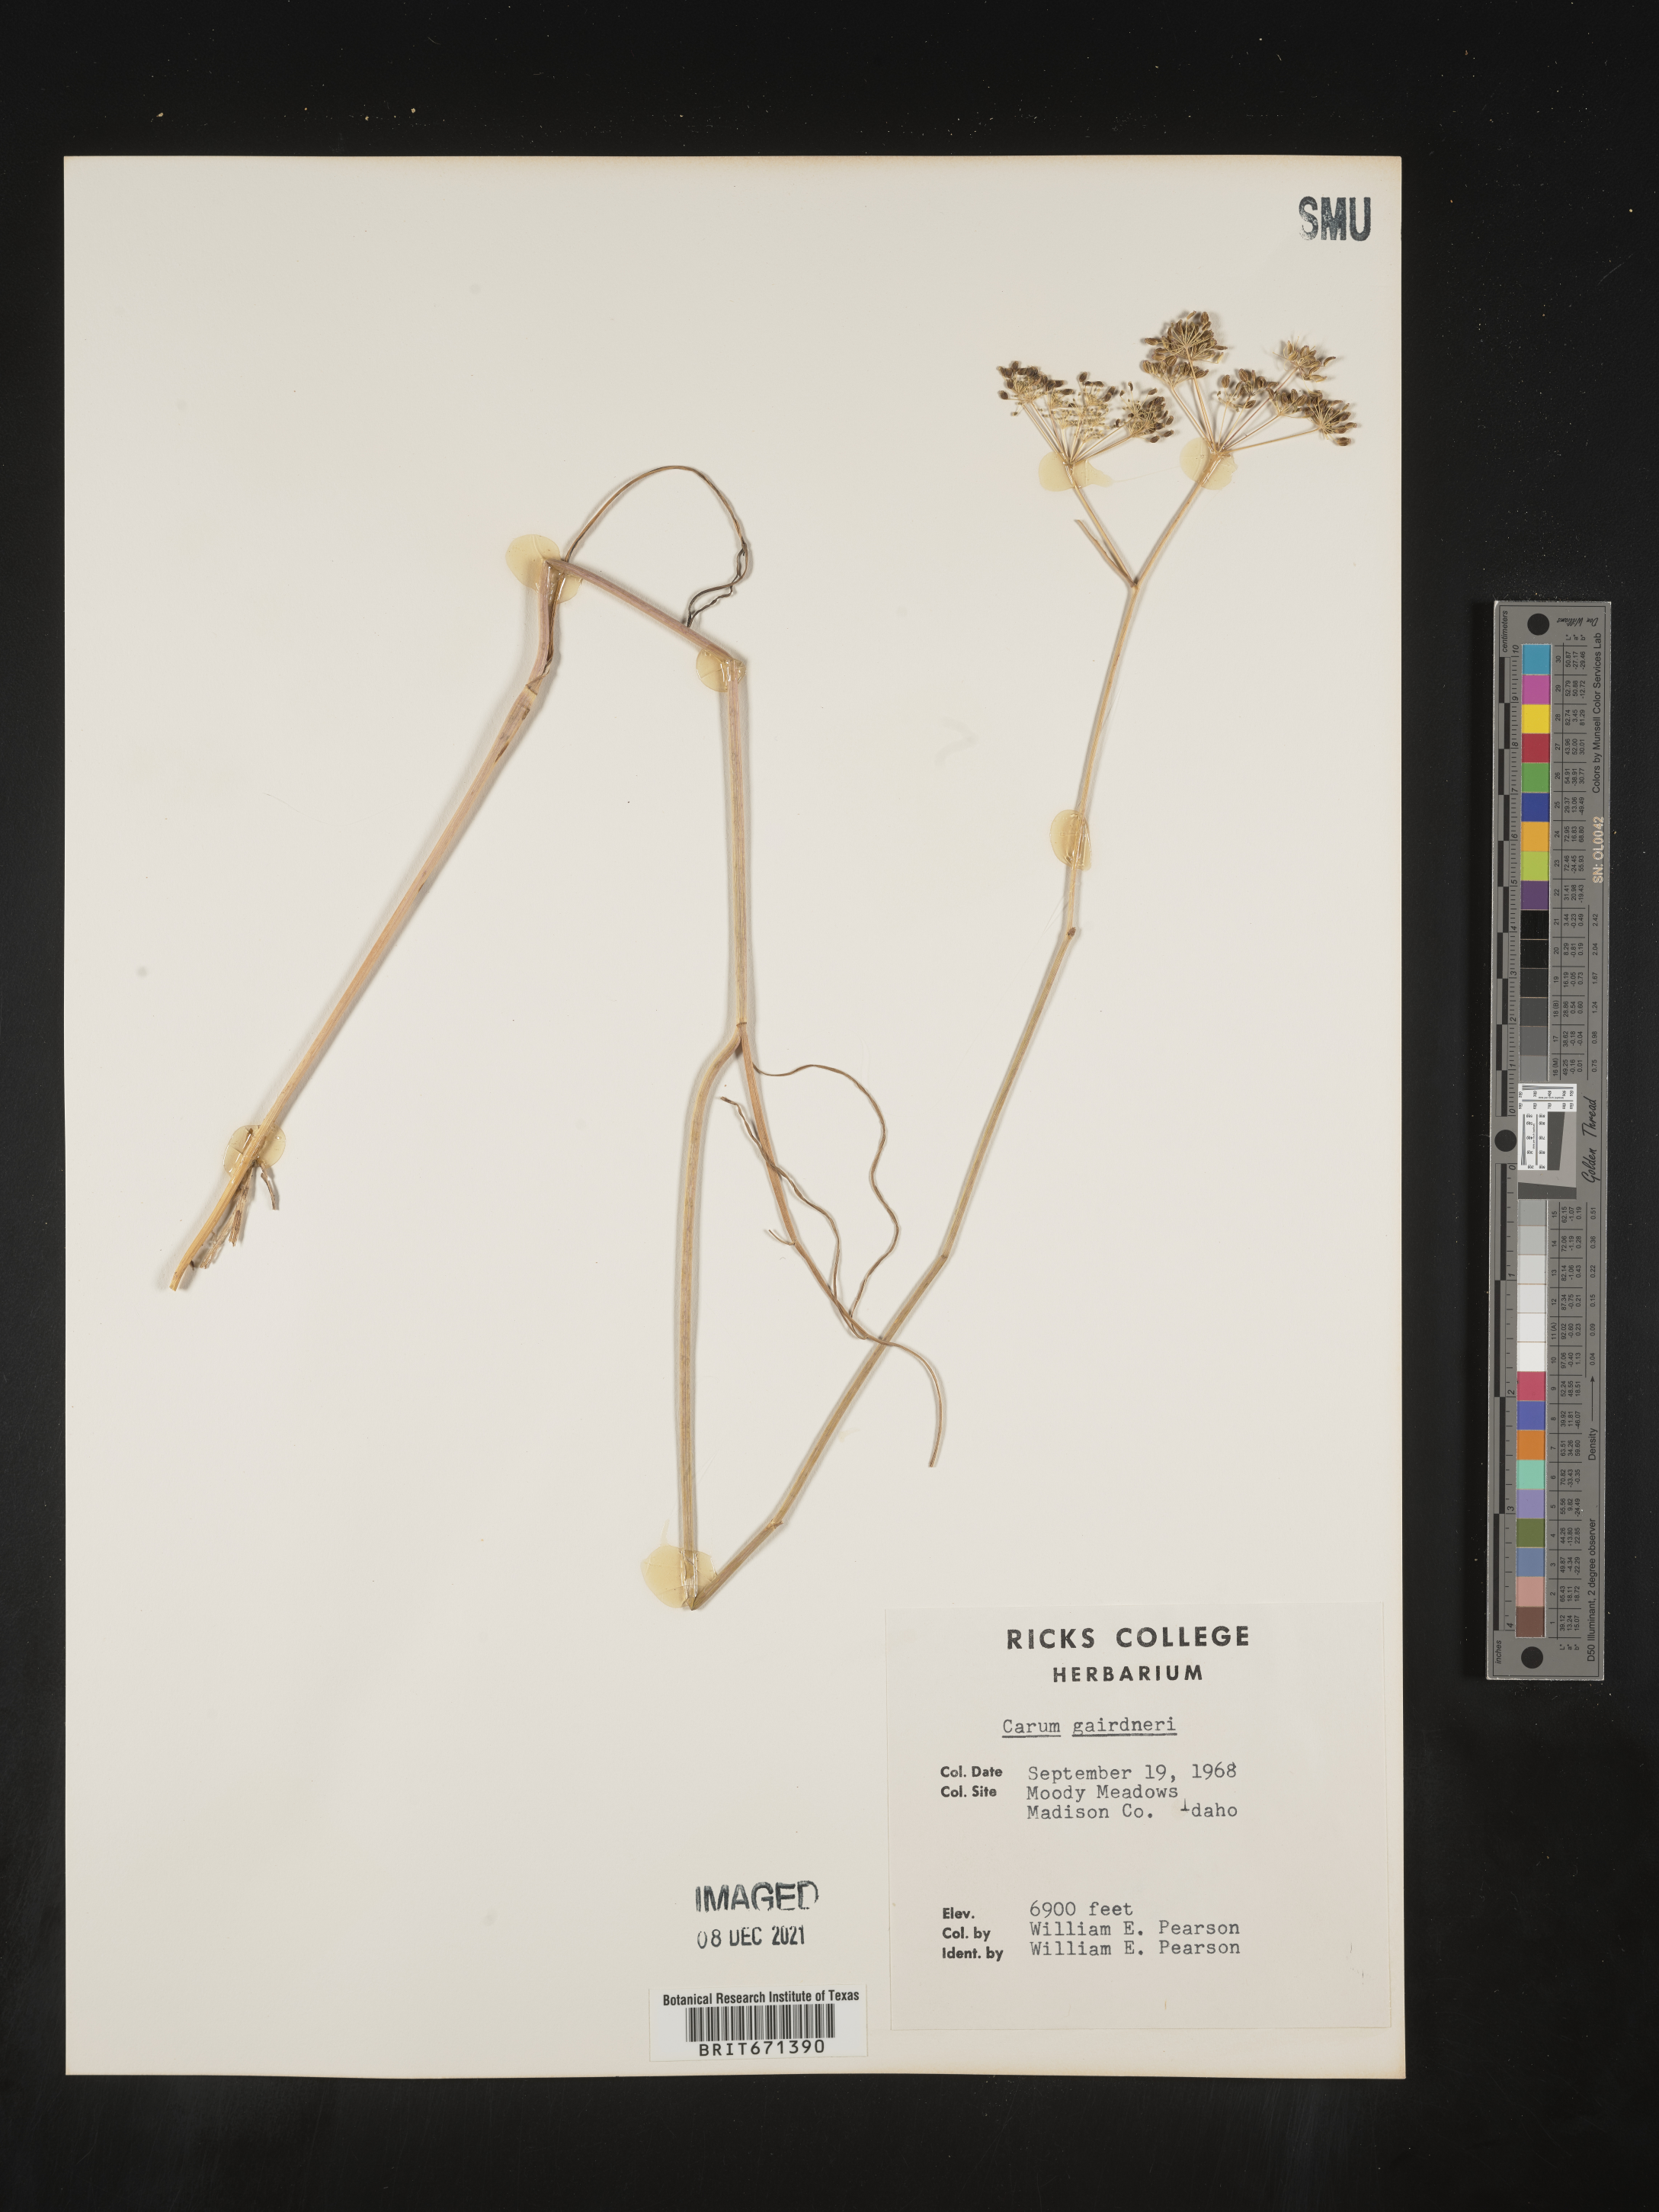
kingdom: Plantae
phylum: Tracheophyta
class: Magnoliopsida
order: Apiales
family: Apiaceae
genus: Perideridia
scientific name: Perideridia gairdneri
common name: False caraway
